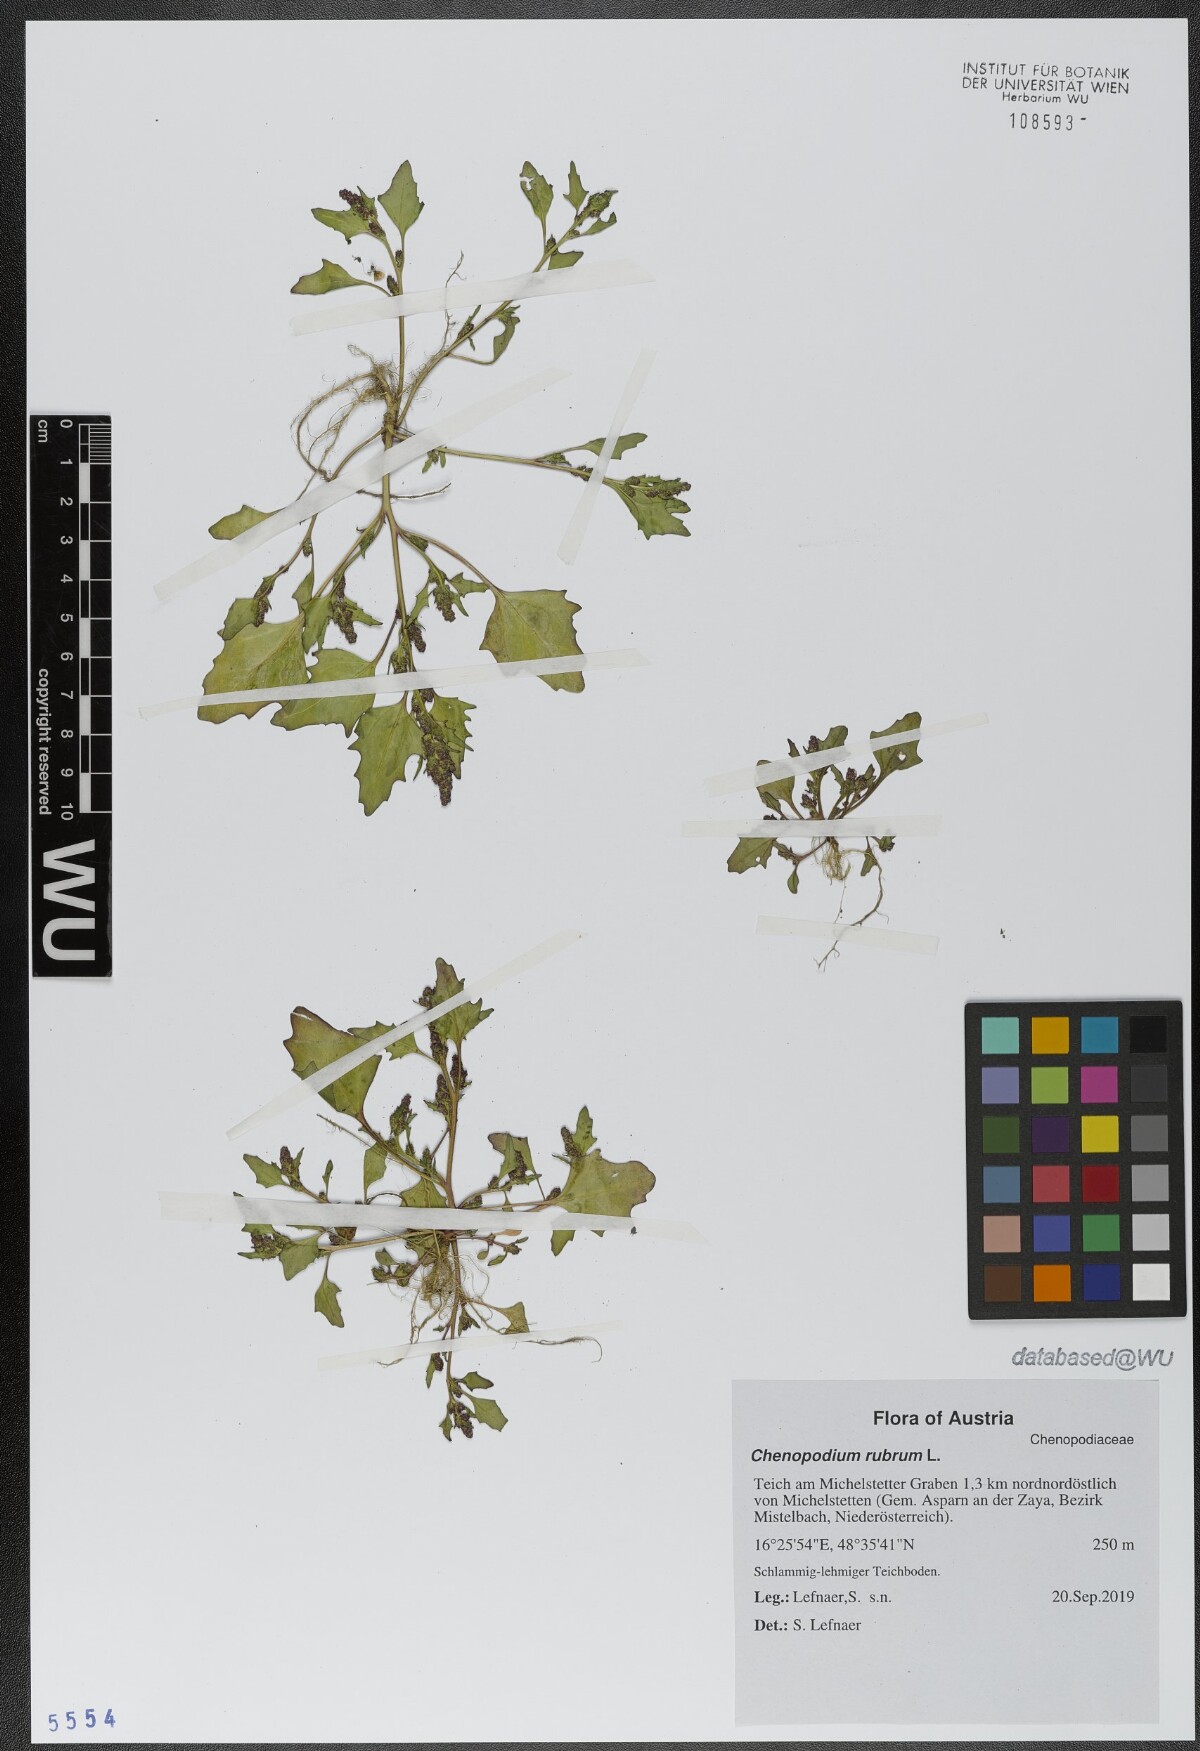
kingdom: Plantae
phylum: Tracheophyta
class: Magnoliopsida
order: Caryophyllales
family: Amaranthaceae
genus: Oxybasis
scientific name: Oxybasis rubra
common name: Red goosefoot
